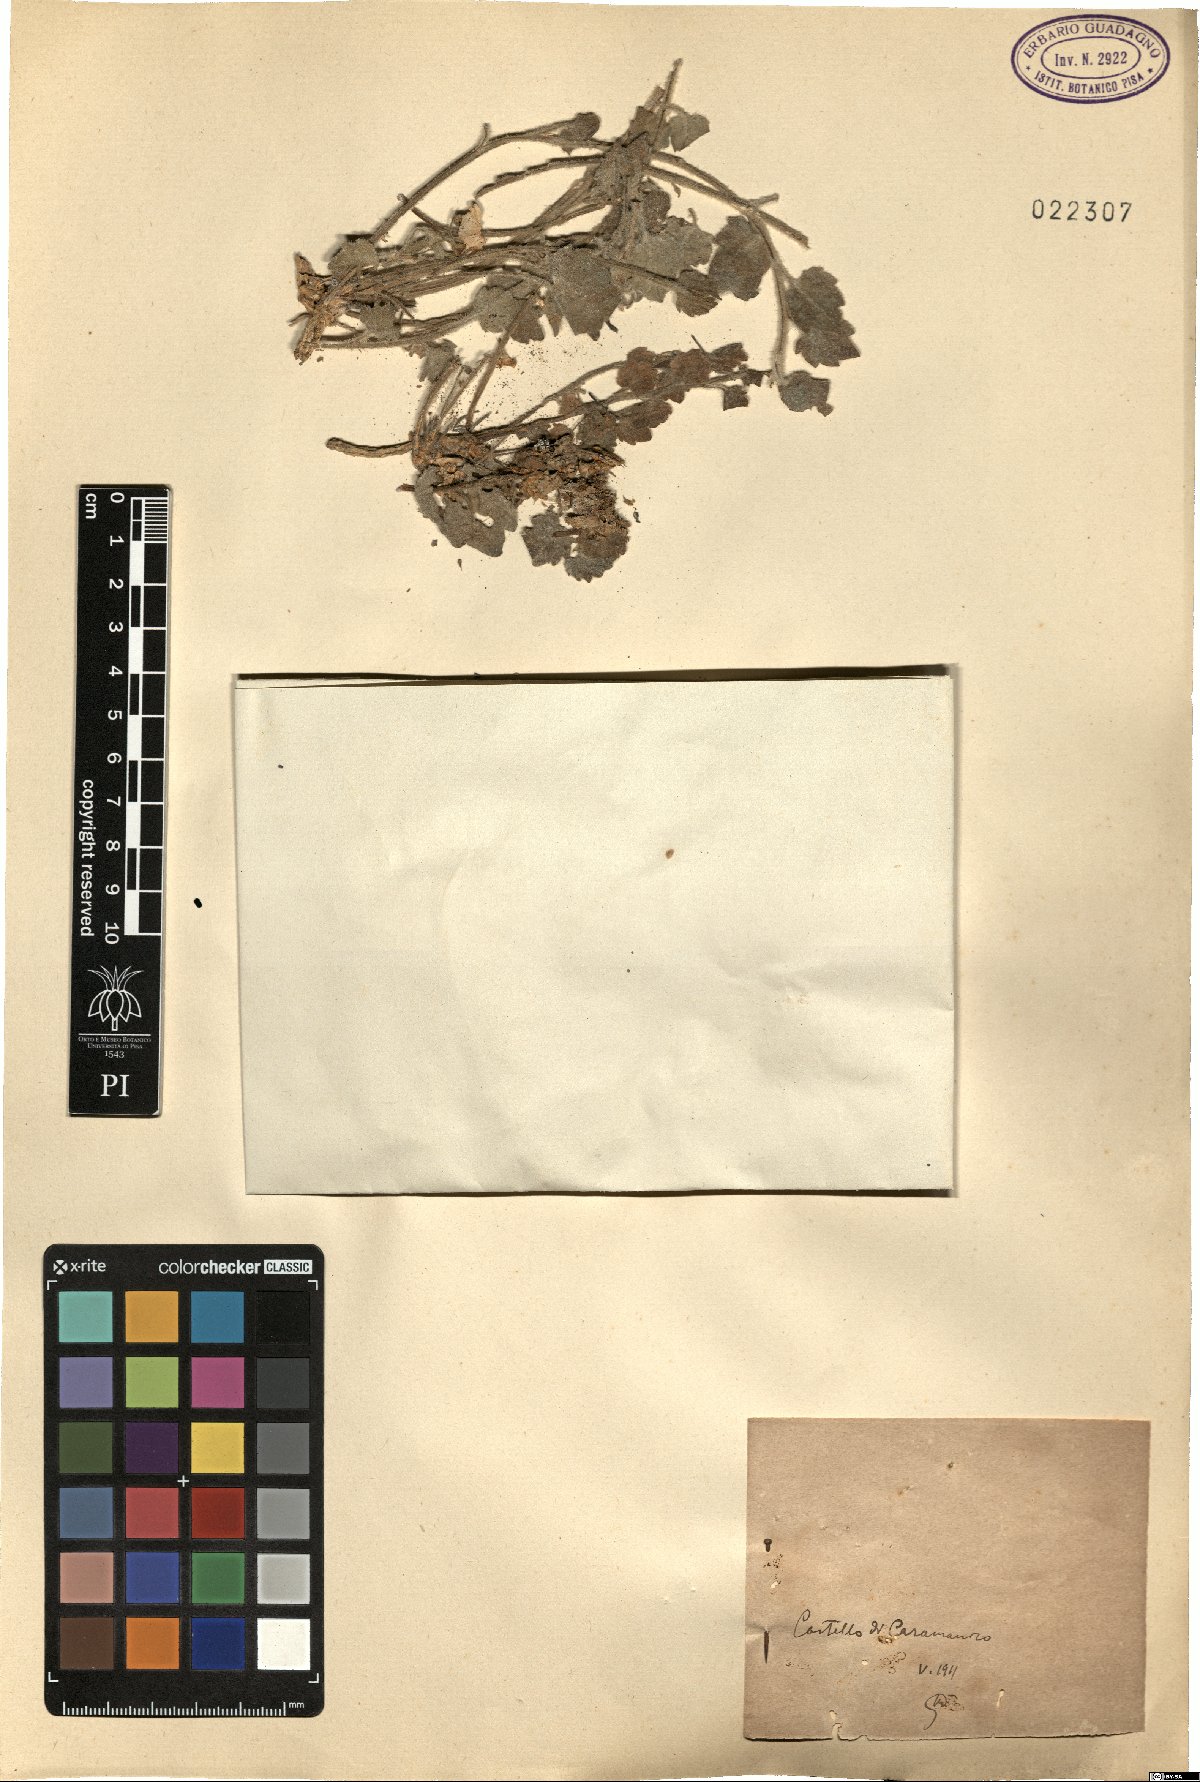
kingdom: Plantae
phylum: Tracheophyta
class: Magnoliopsida
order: Asterales
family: Campanulaceae
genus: Campanula
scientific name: Campanula
